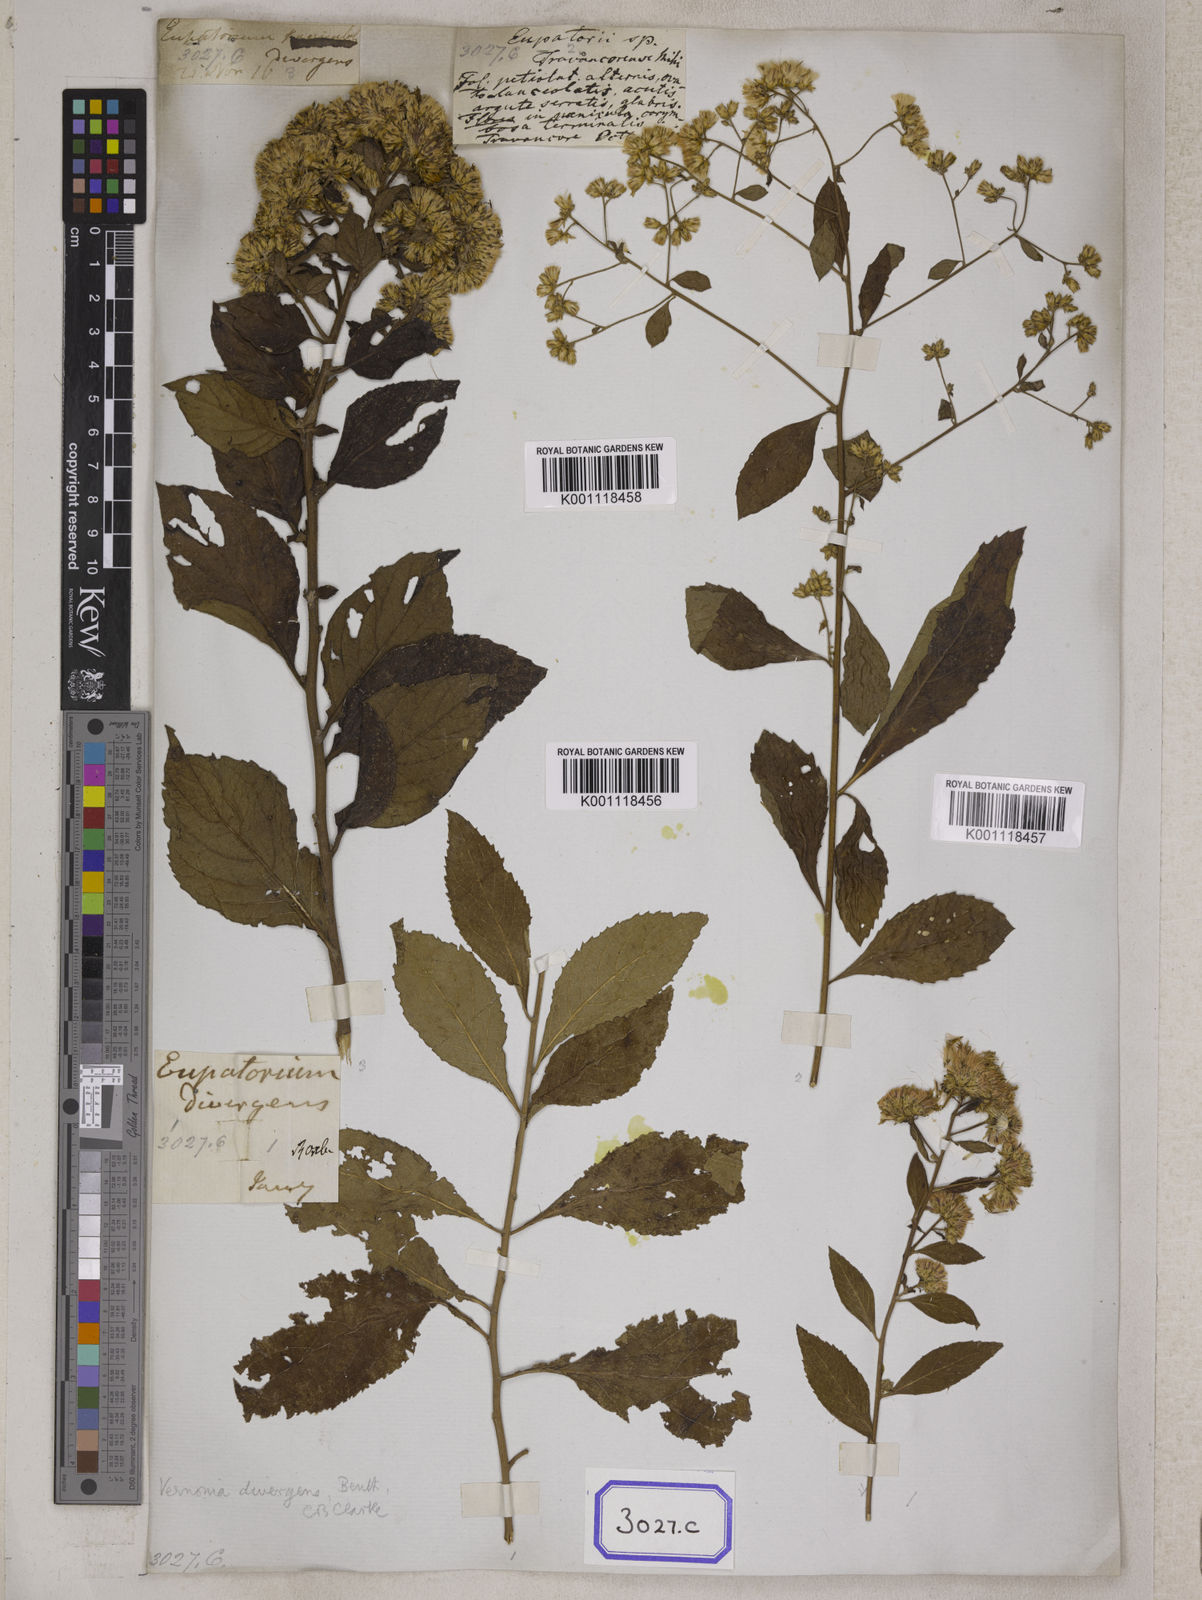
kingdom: Plantae
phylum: Tracheophyta
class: Magnoliopsida
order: Asterales
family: Asteraceae
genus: Acilepis
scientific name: Acilepis divergens
